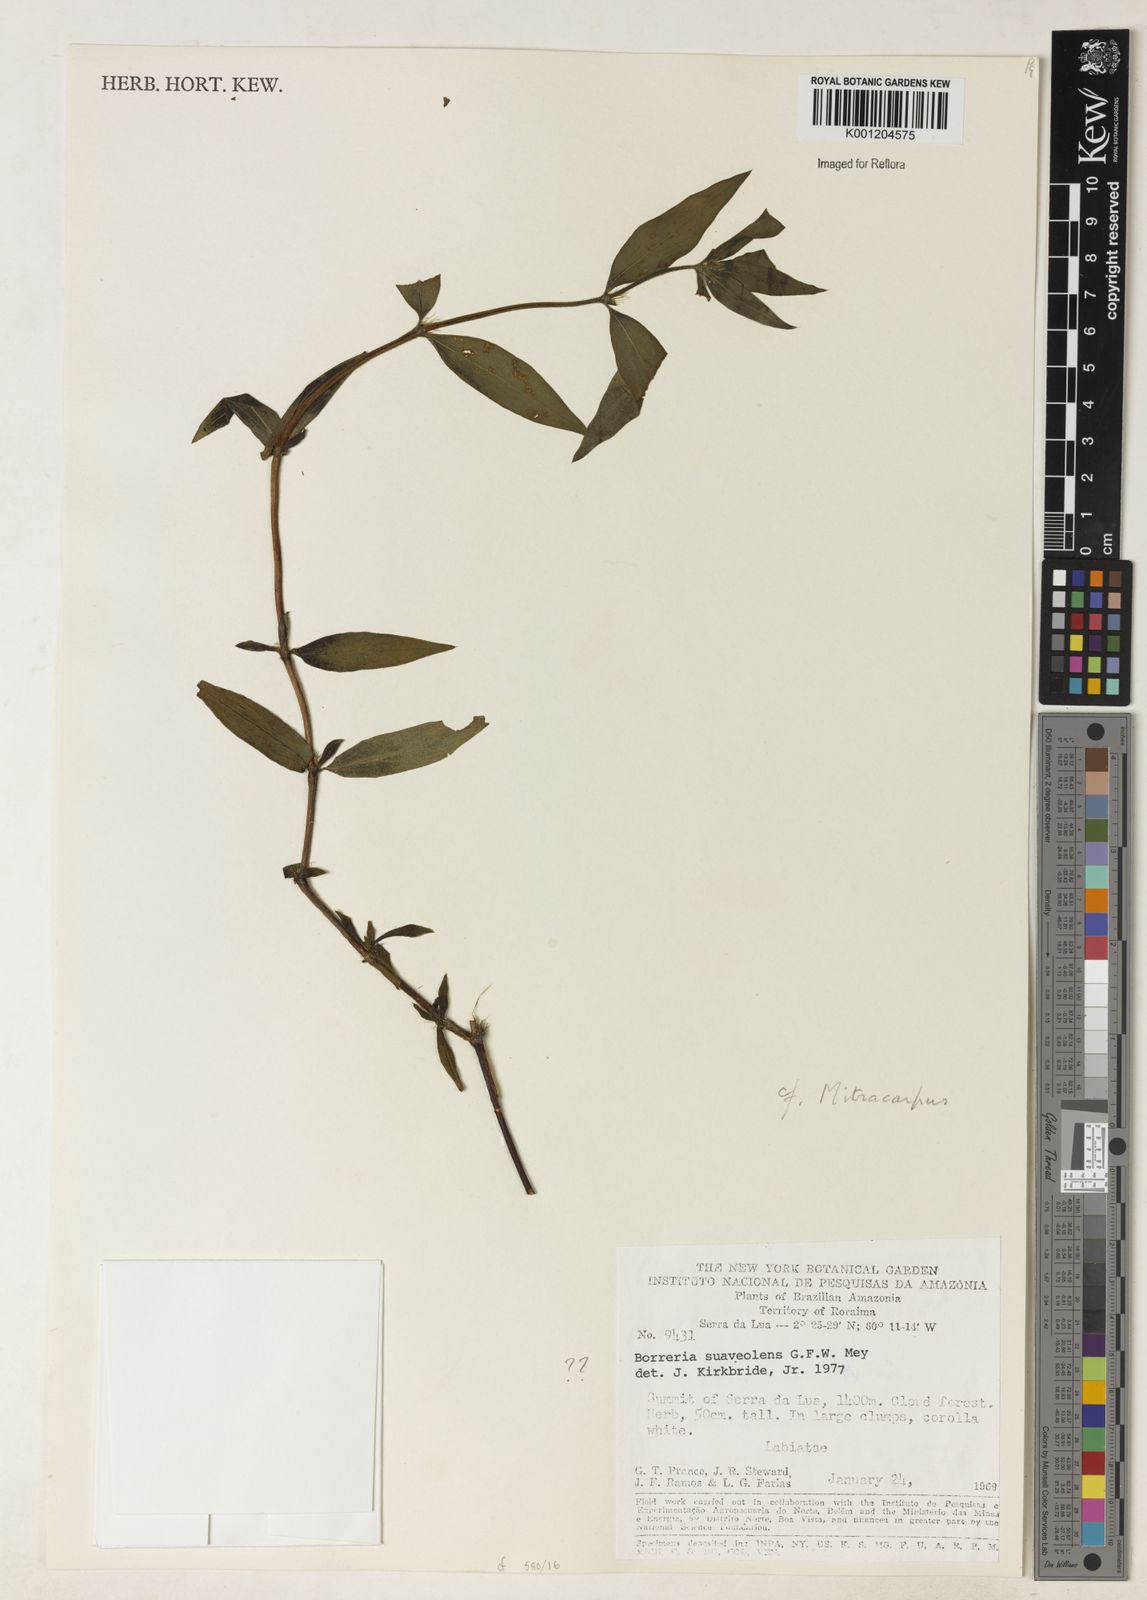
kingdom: Plantae
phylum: Tracheophyta
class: Magnoliopsida
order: Gentianales
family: Rubiaceae
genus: Mitracarpus
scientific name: Mitracarpus
